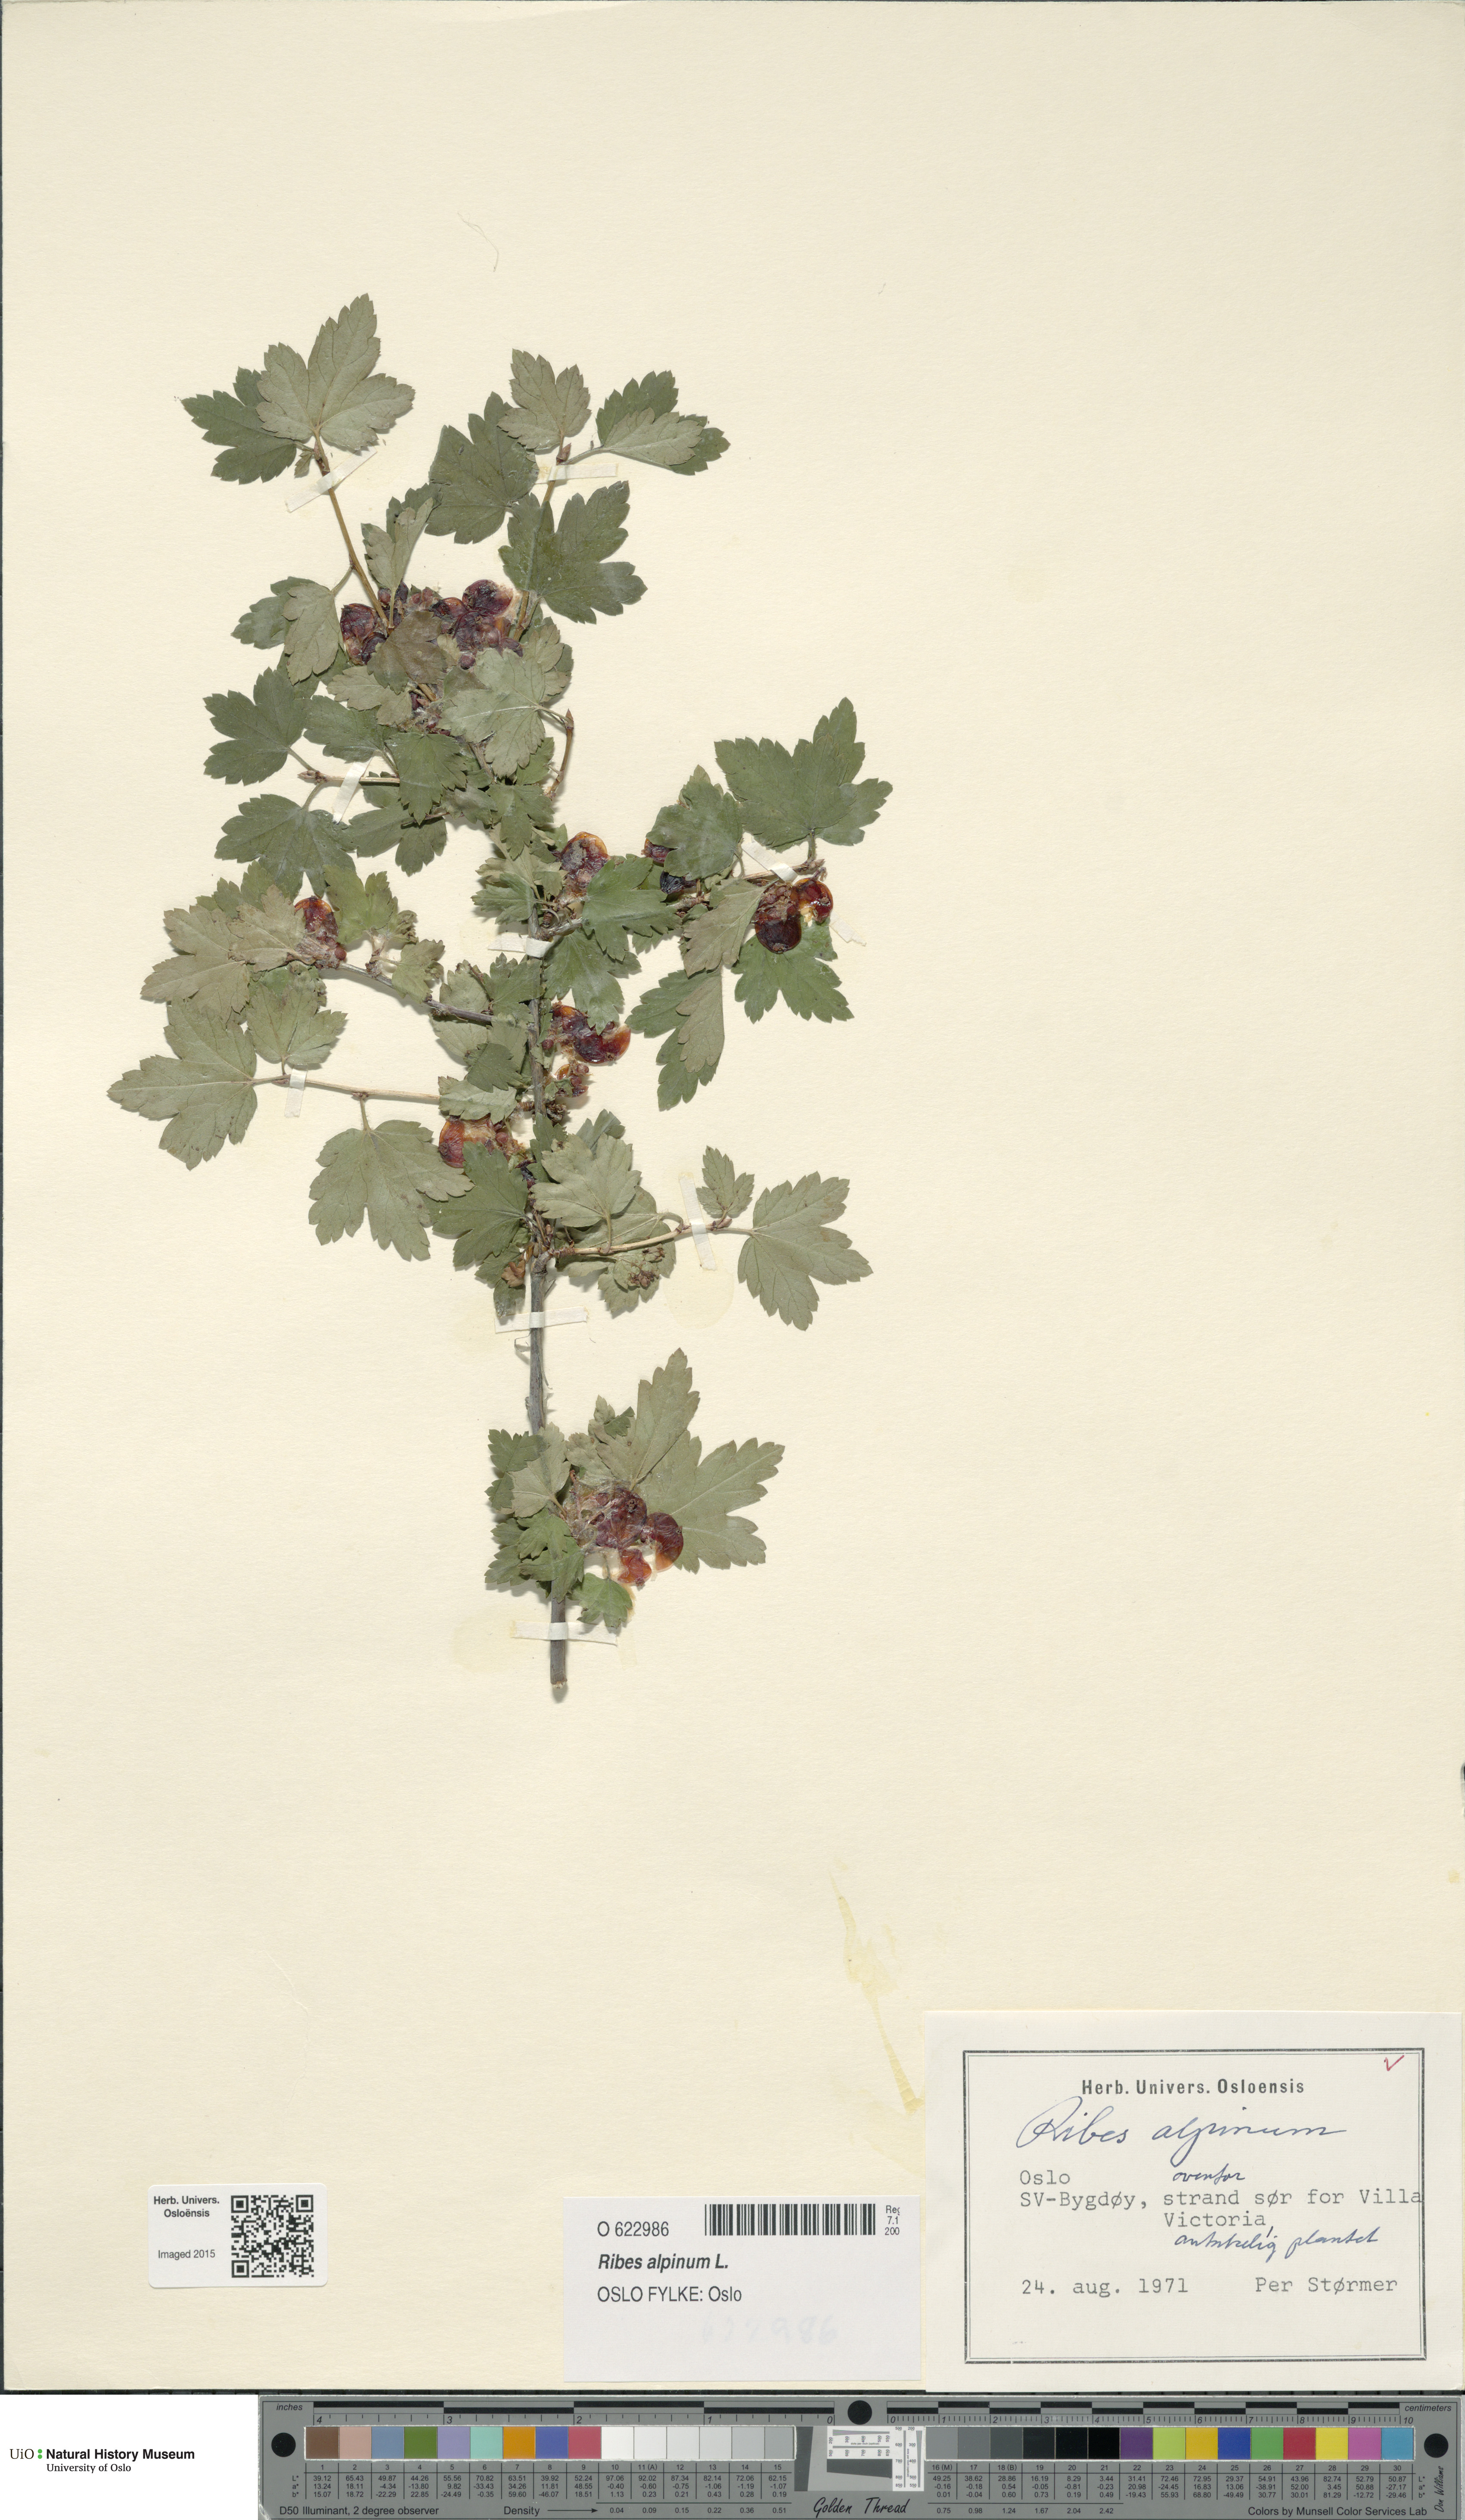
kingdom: Plantae
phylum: Tracheophyta
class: Magnoliopsida
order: Saxifragales
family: Grossulariaceae
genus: Ribes
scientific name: Ribes alpinum
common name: Alpine currant
